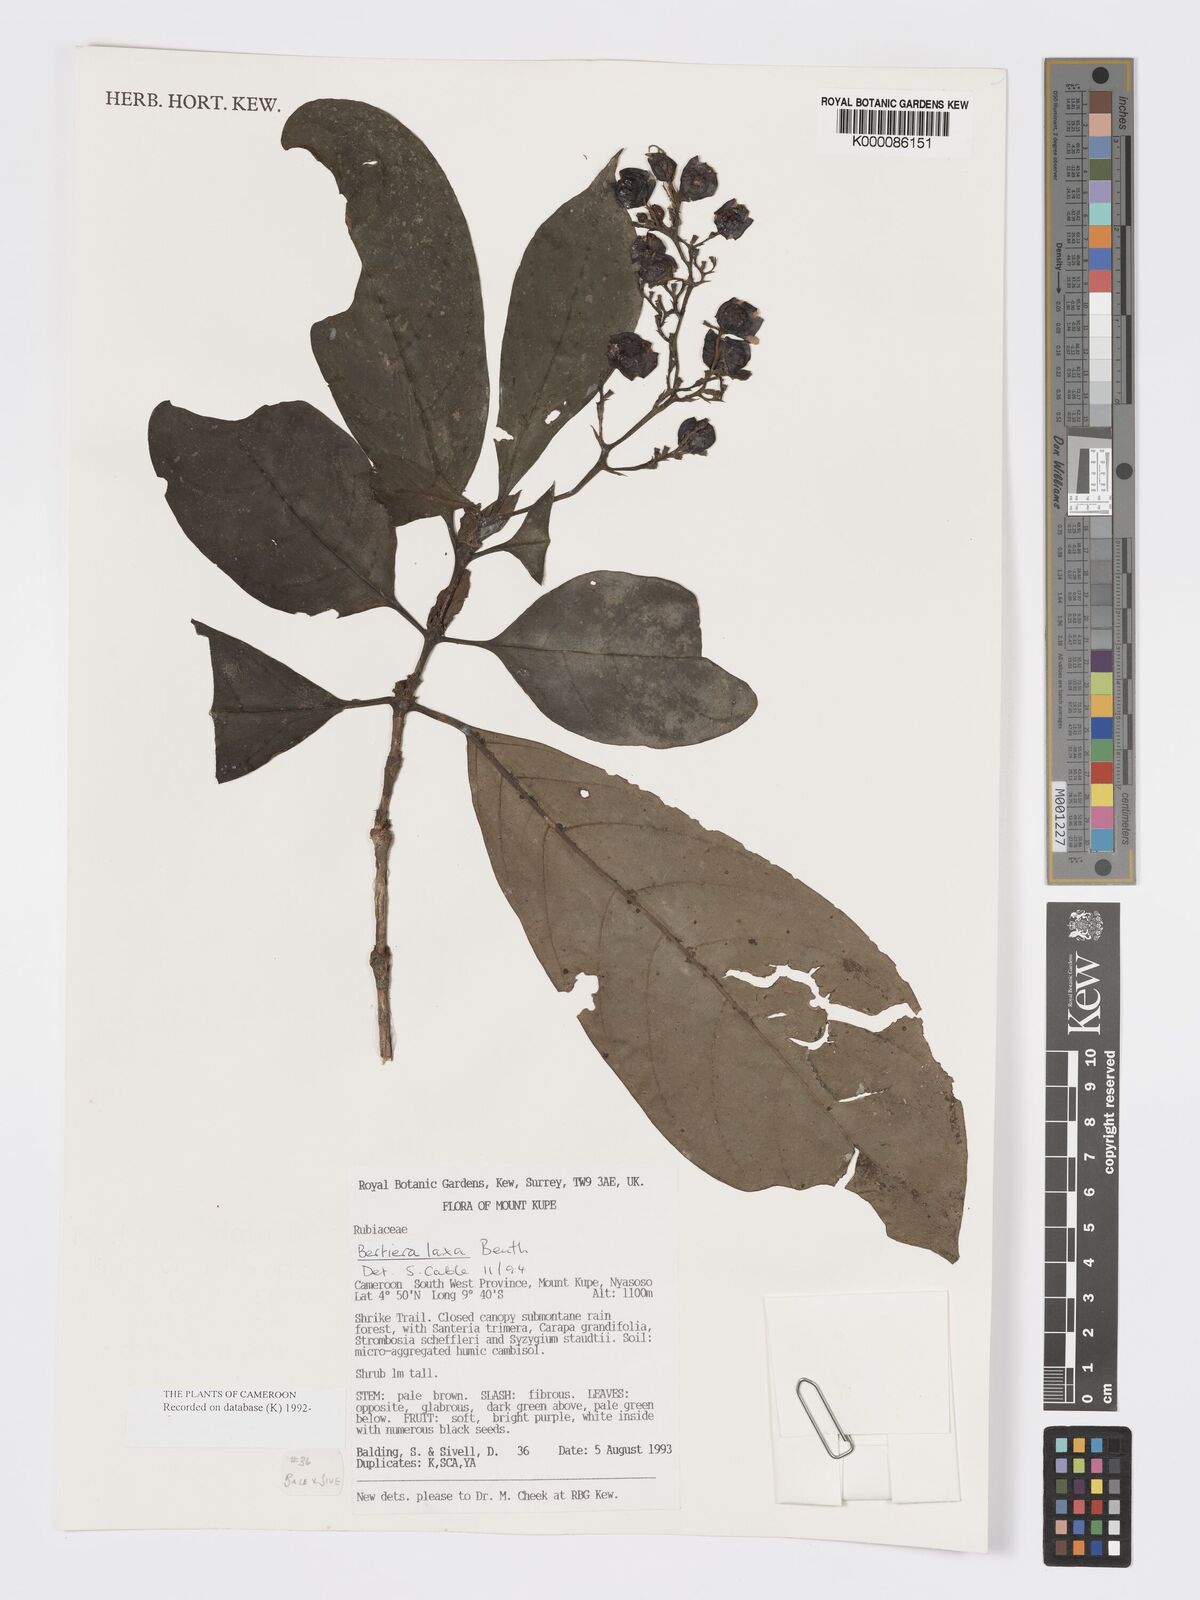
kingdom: Plantae
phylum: Tracheophyta
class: Magnoliopsida
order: Gentianales
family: Rubiaceae
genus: Bertiera
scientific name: Bertiera laxa
